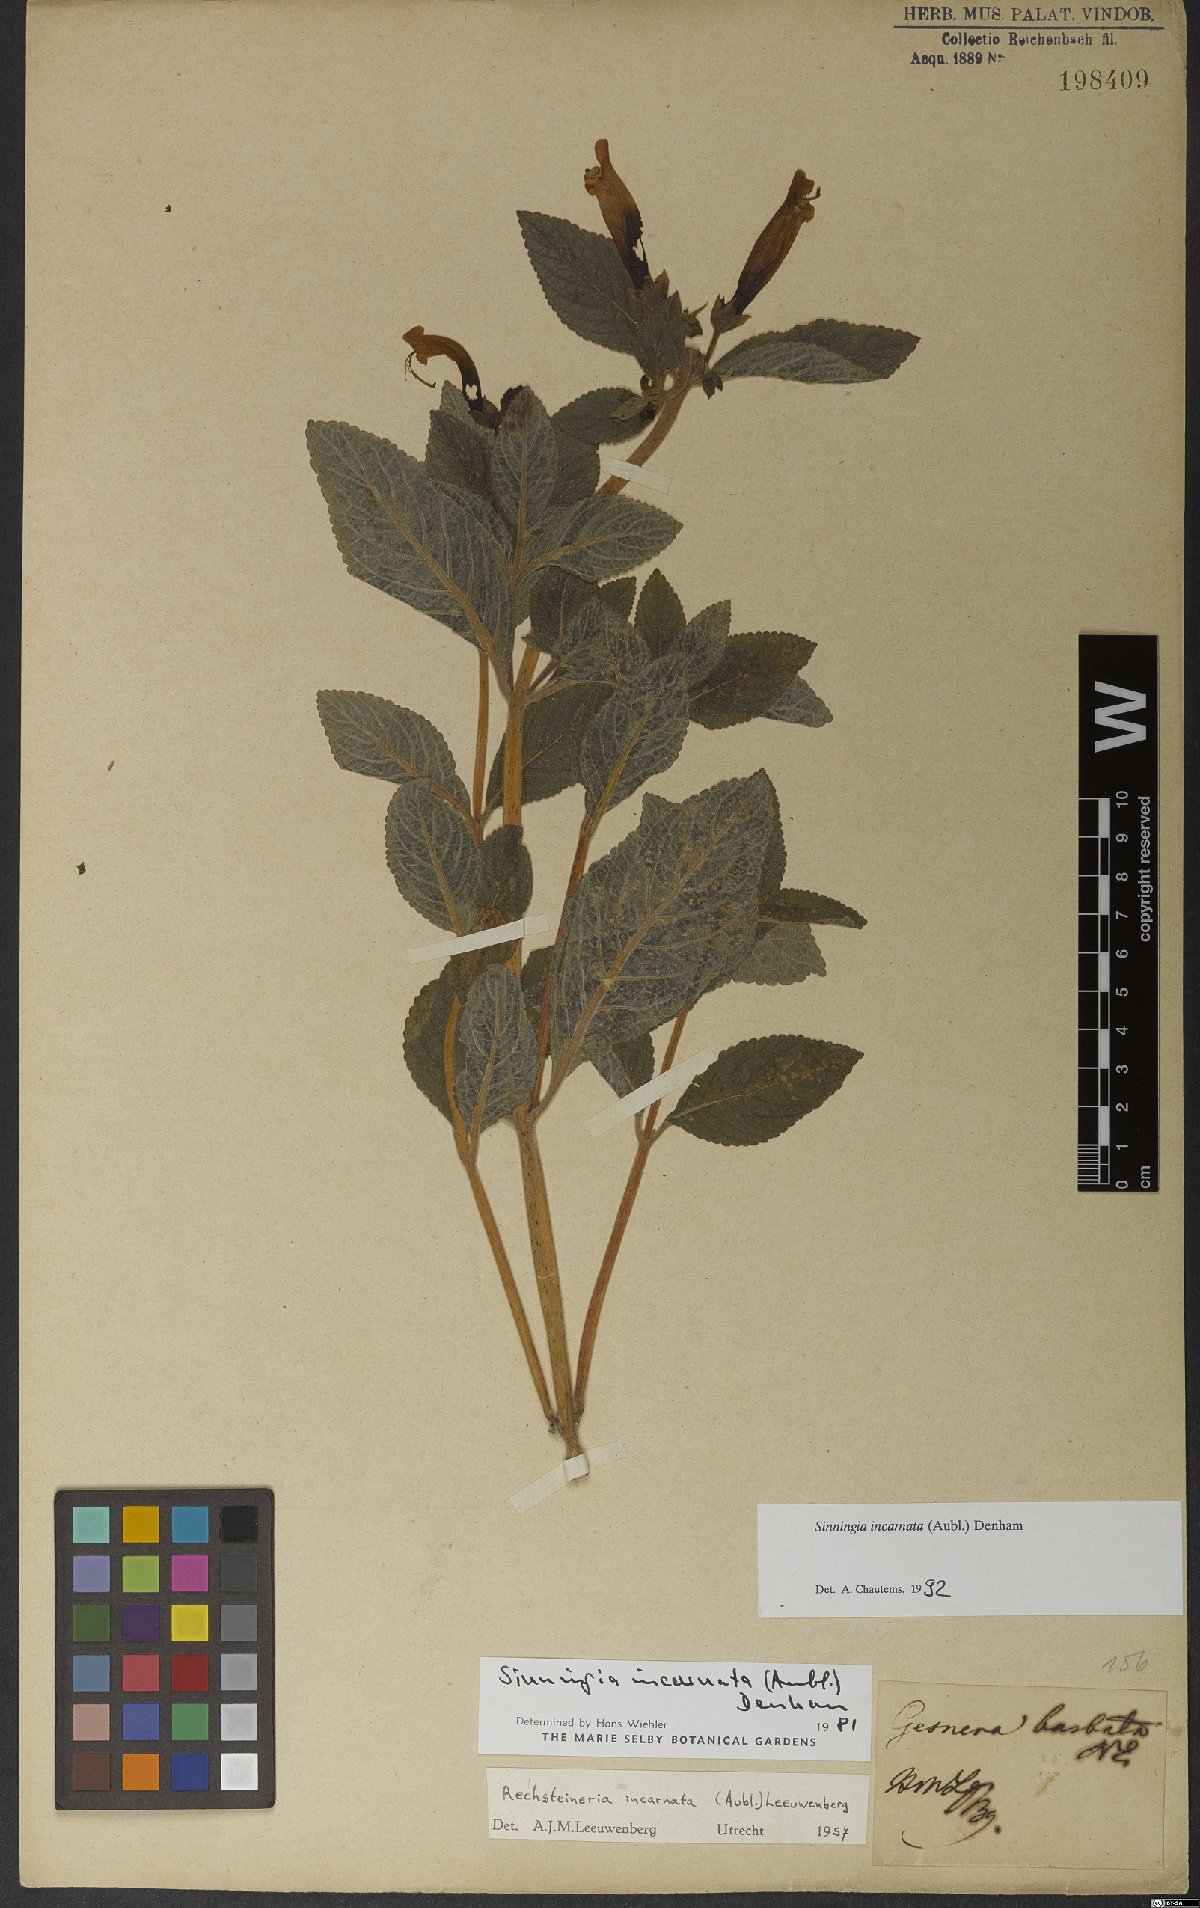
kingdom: Plantae
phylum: Tracheophyta
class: Magnoliopsida
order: Lamiales
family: Gesneriaceae
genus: Sinningia
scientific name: Sinningia incarnata
